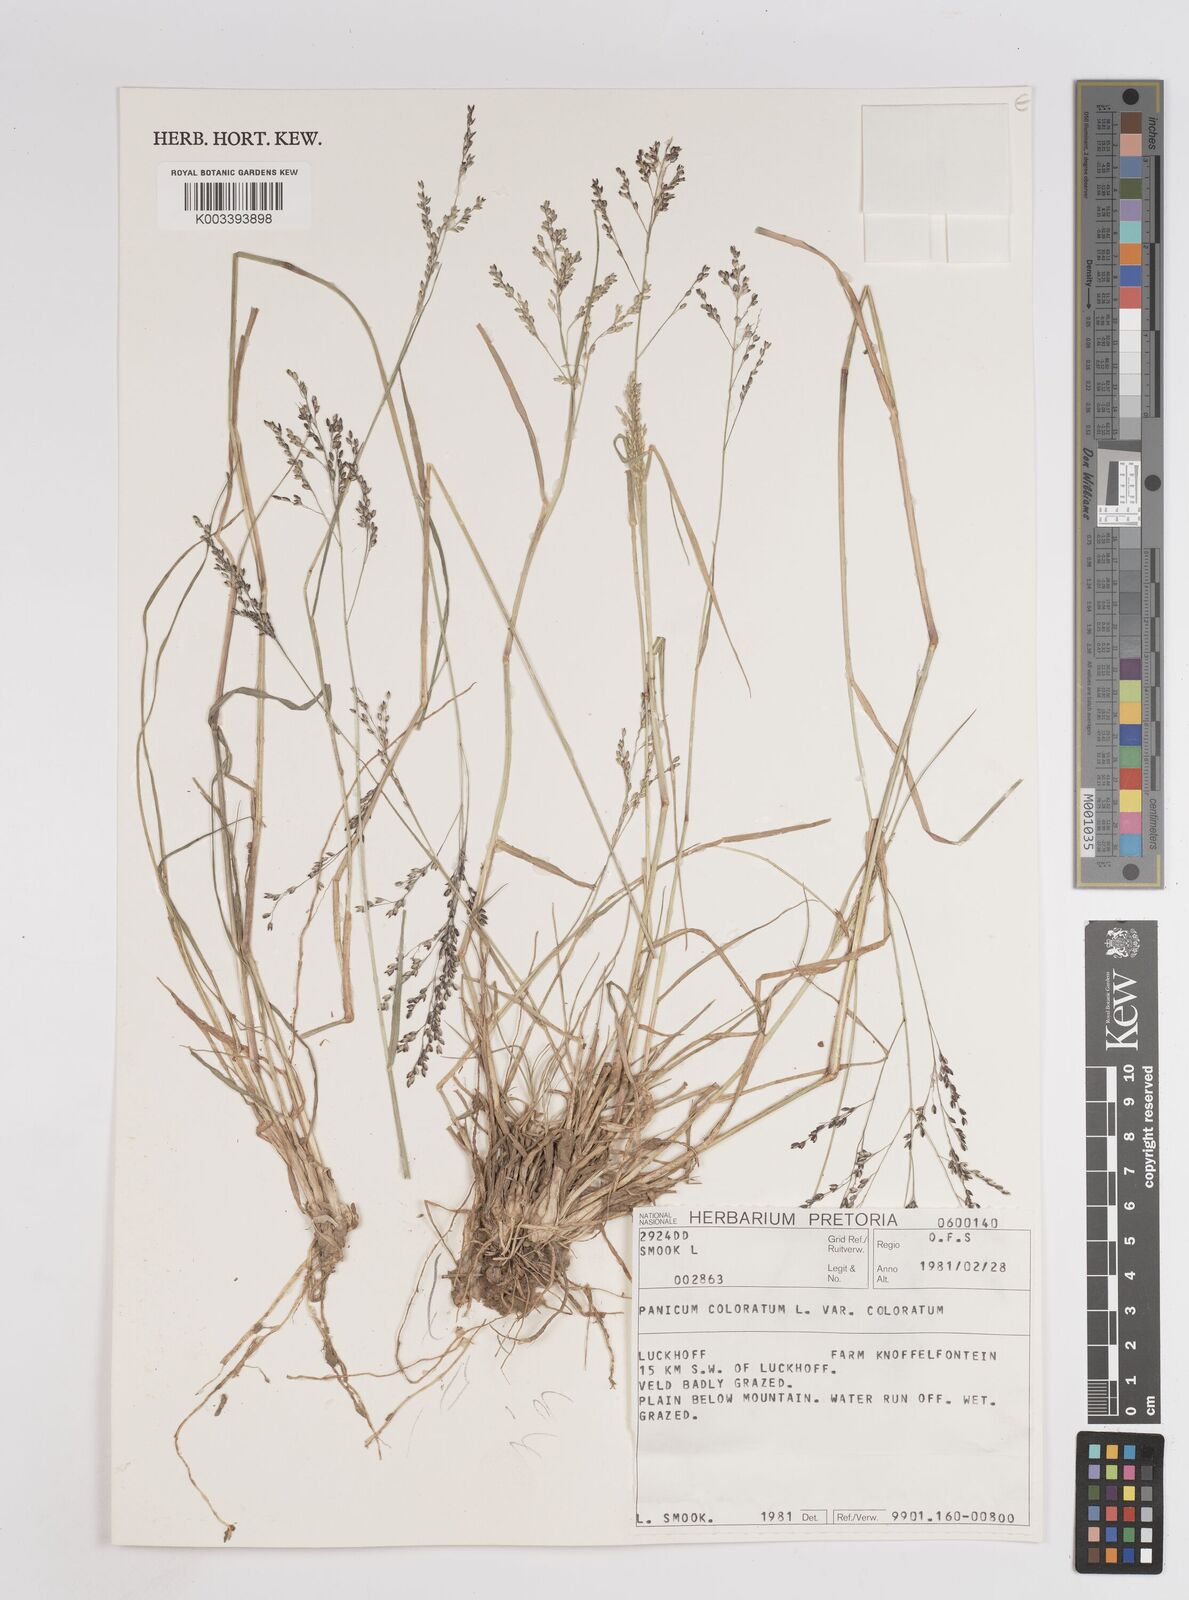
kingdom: Plantae
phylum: Tracheophyta
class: Liliopsida
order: Poales
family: Poaceae
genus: Panicum
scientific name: Panicum stapfianum
